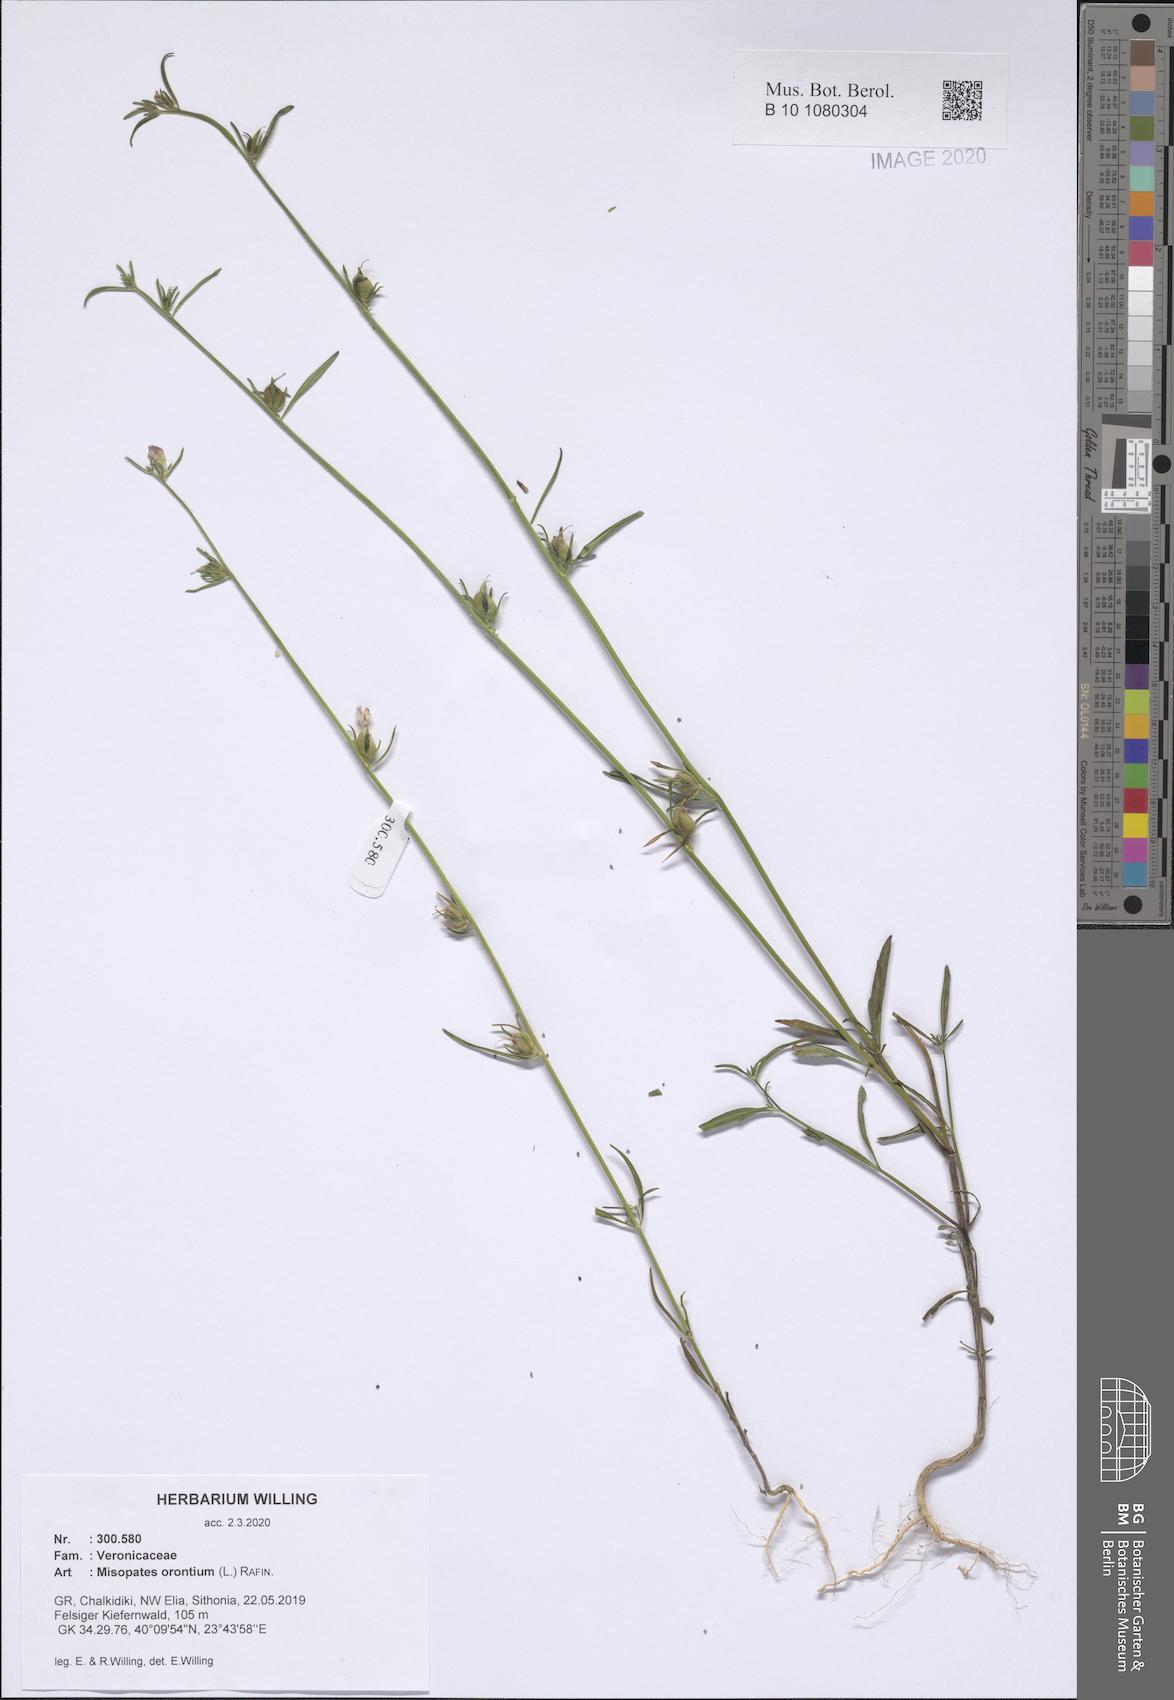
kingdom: Plantae
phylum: Tracheophyta
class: Magnoliopsida
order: Lamiales
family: Plantaginaceae
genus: Misopates
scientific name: Misopates orontium
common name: Weasel's-snout
